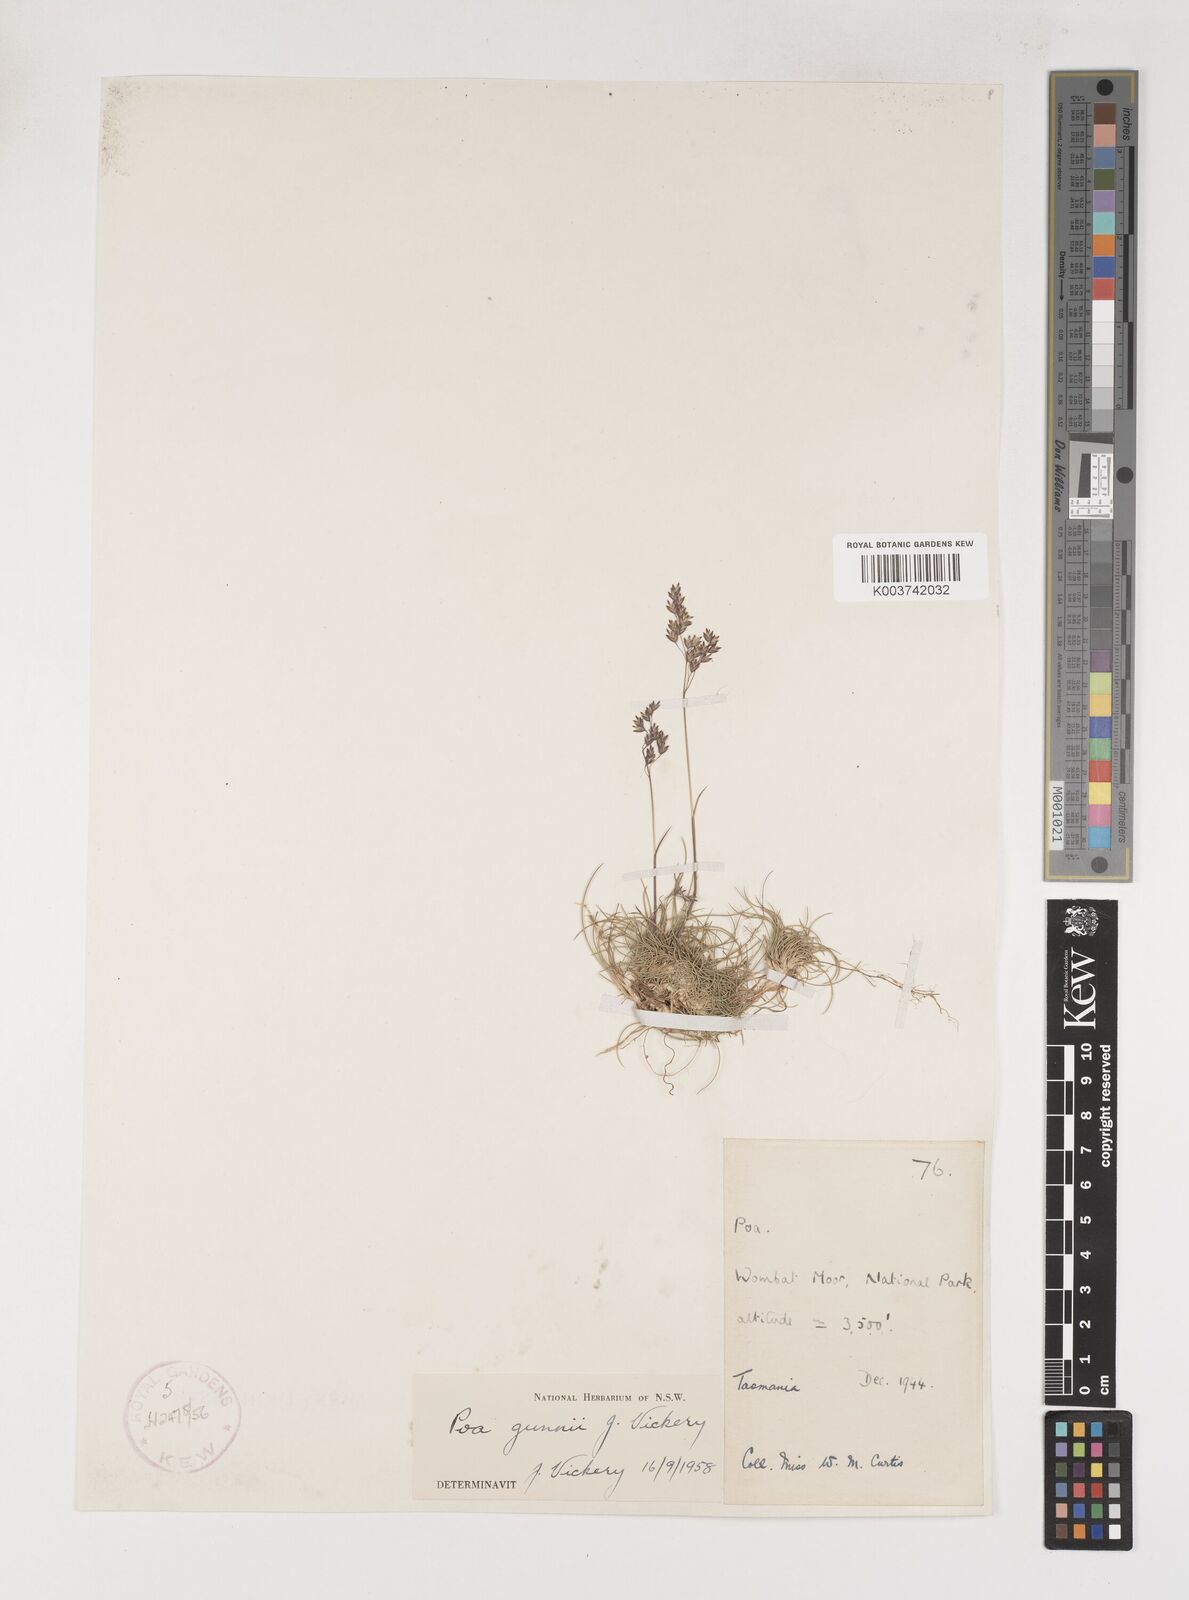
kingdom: Plantae
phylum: Tracheophyta
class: Liliopsida
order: Poales
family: Poaceae
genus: Poa
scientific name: Poa gunnii
